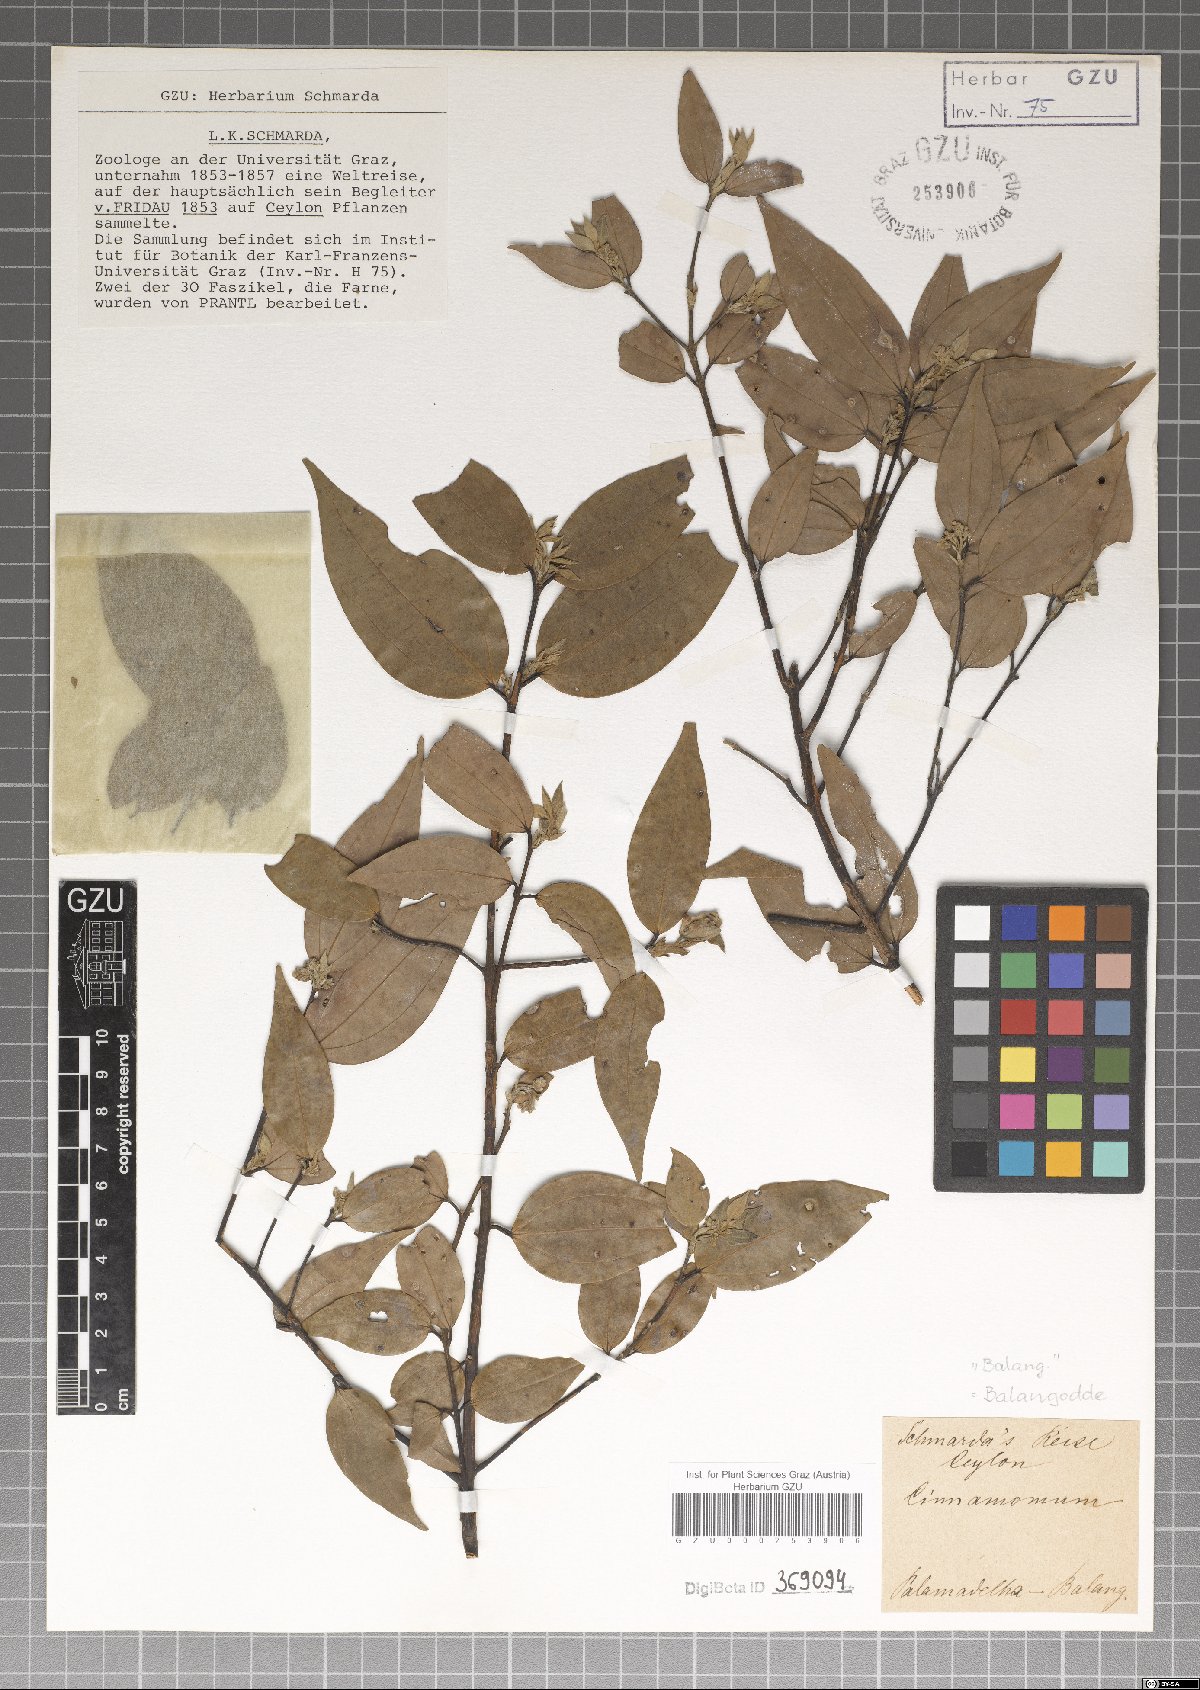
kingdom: Plantae
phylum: Tracheophyta
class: Magnoliopsida
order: Laurales
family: Lauraceae
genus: Cinnamomum
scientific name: Cinnamomum
